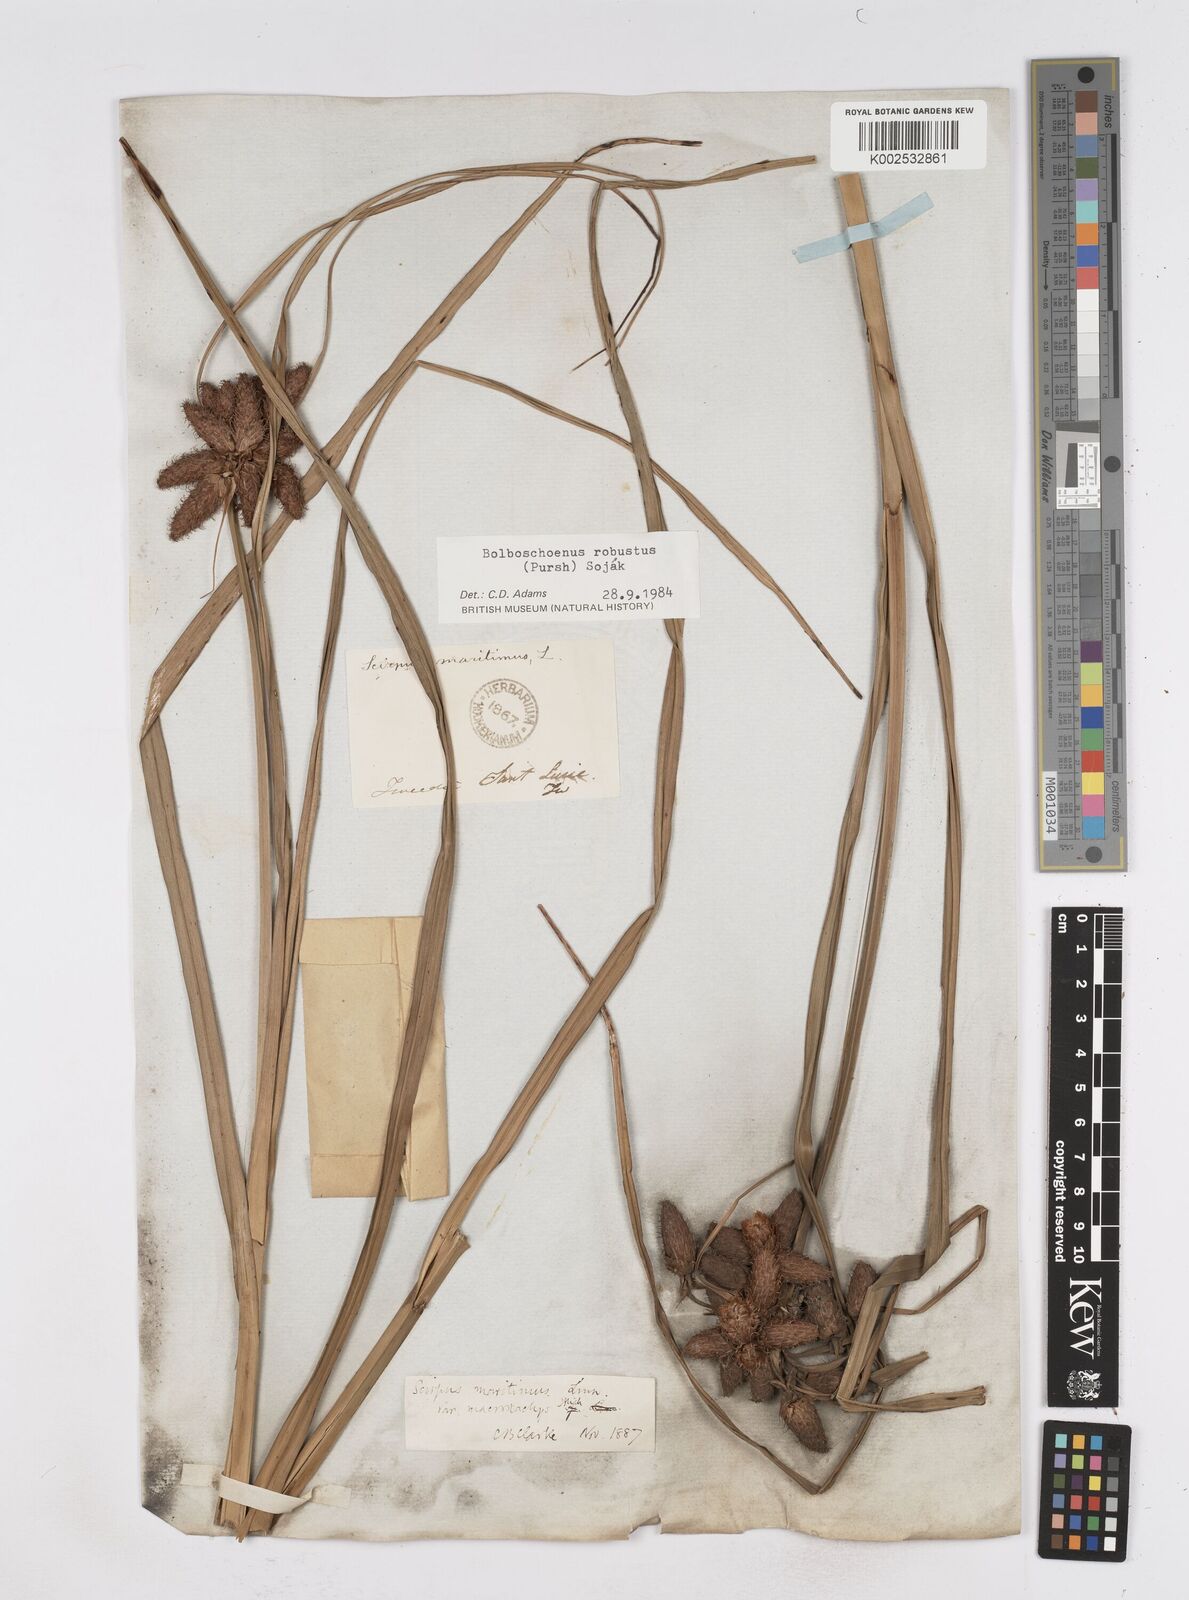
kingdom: Plantae
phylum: Tracheophyta
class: Liliopsida
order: Poales
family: Cyperaceae
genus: Bolboschoenus
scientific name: Bolboschoenus robustus
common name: Seacoast bulrush
